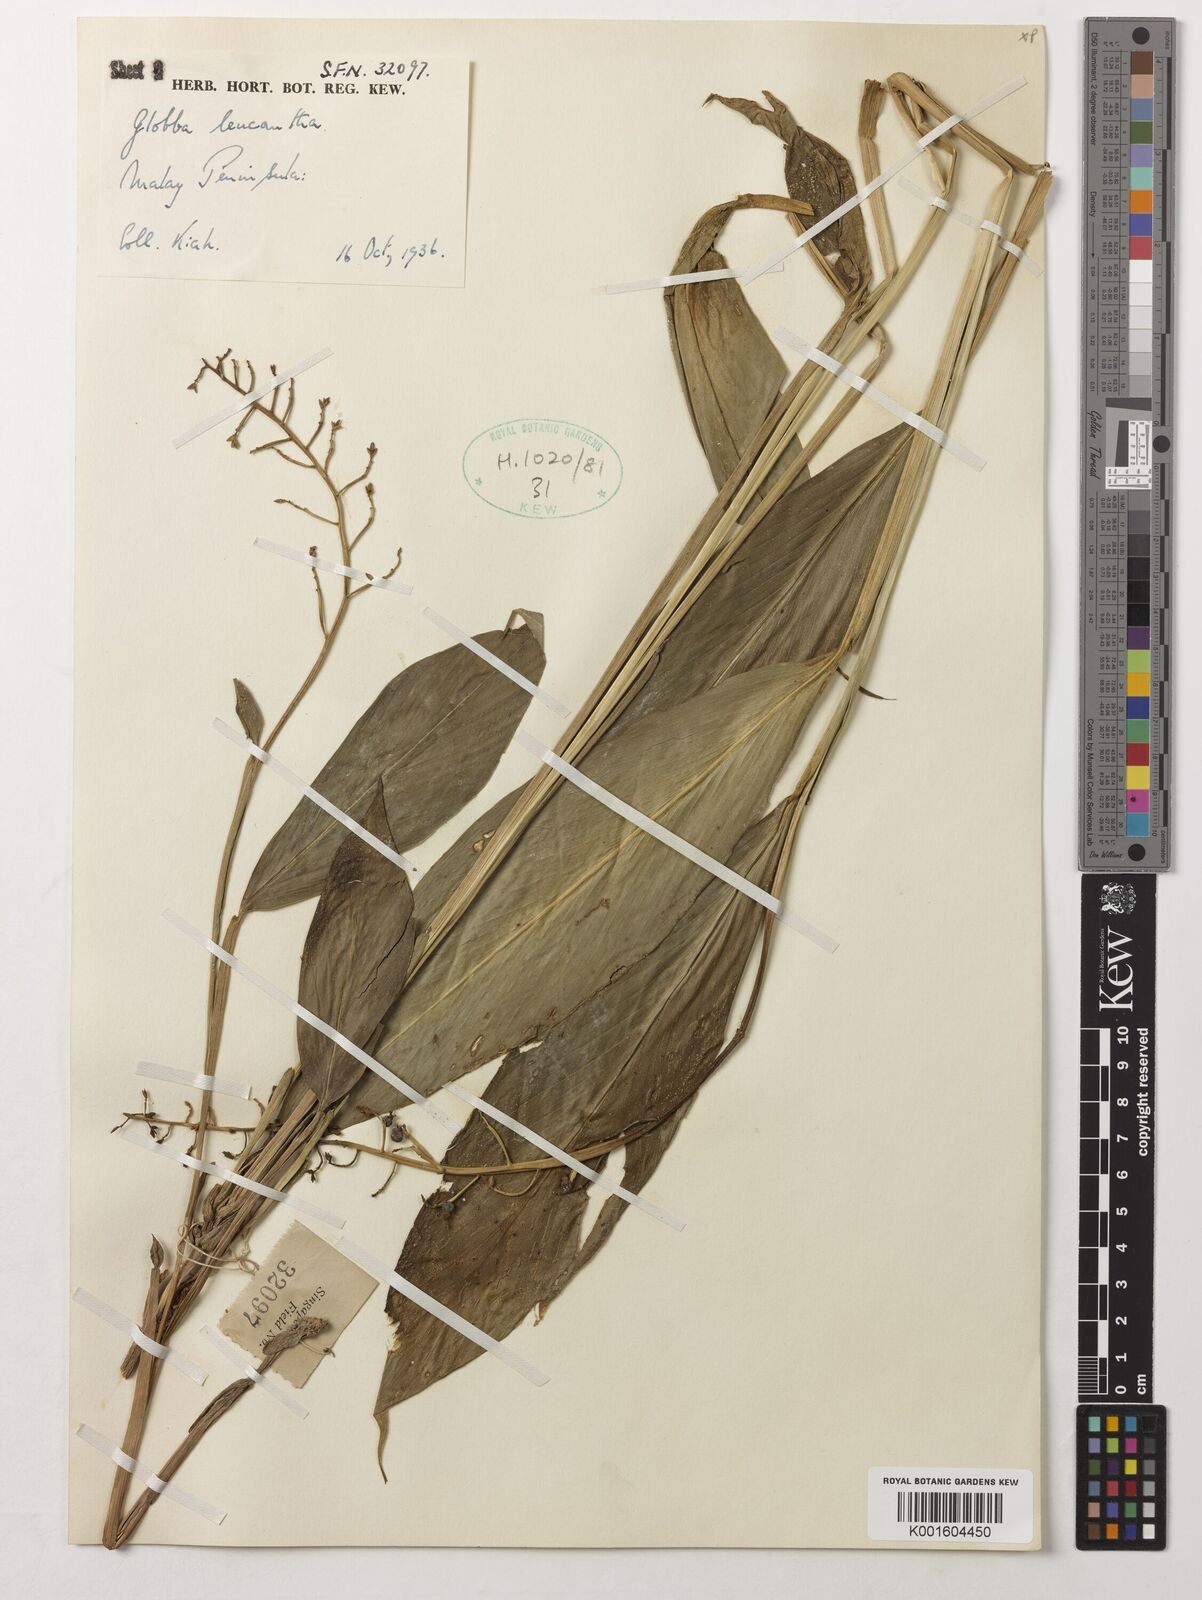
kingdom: Plantae
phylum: Tracheophyta
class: Liliopsida
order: Zingiberales
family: Zingiberaceae
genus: Globba
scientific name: Globba leucantha
